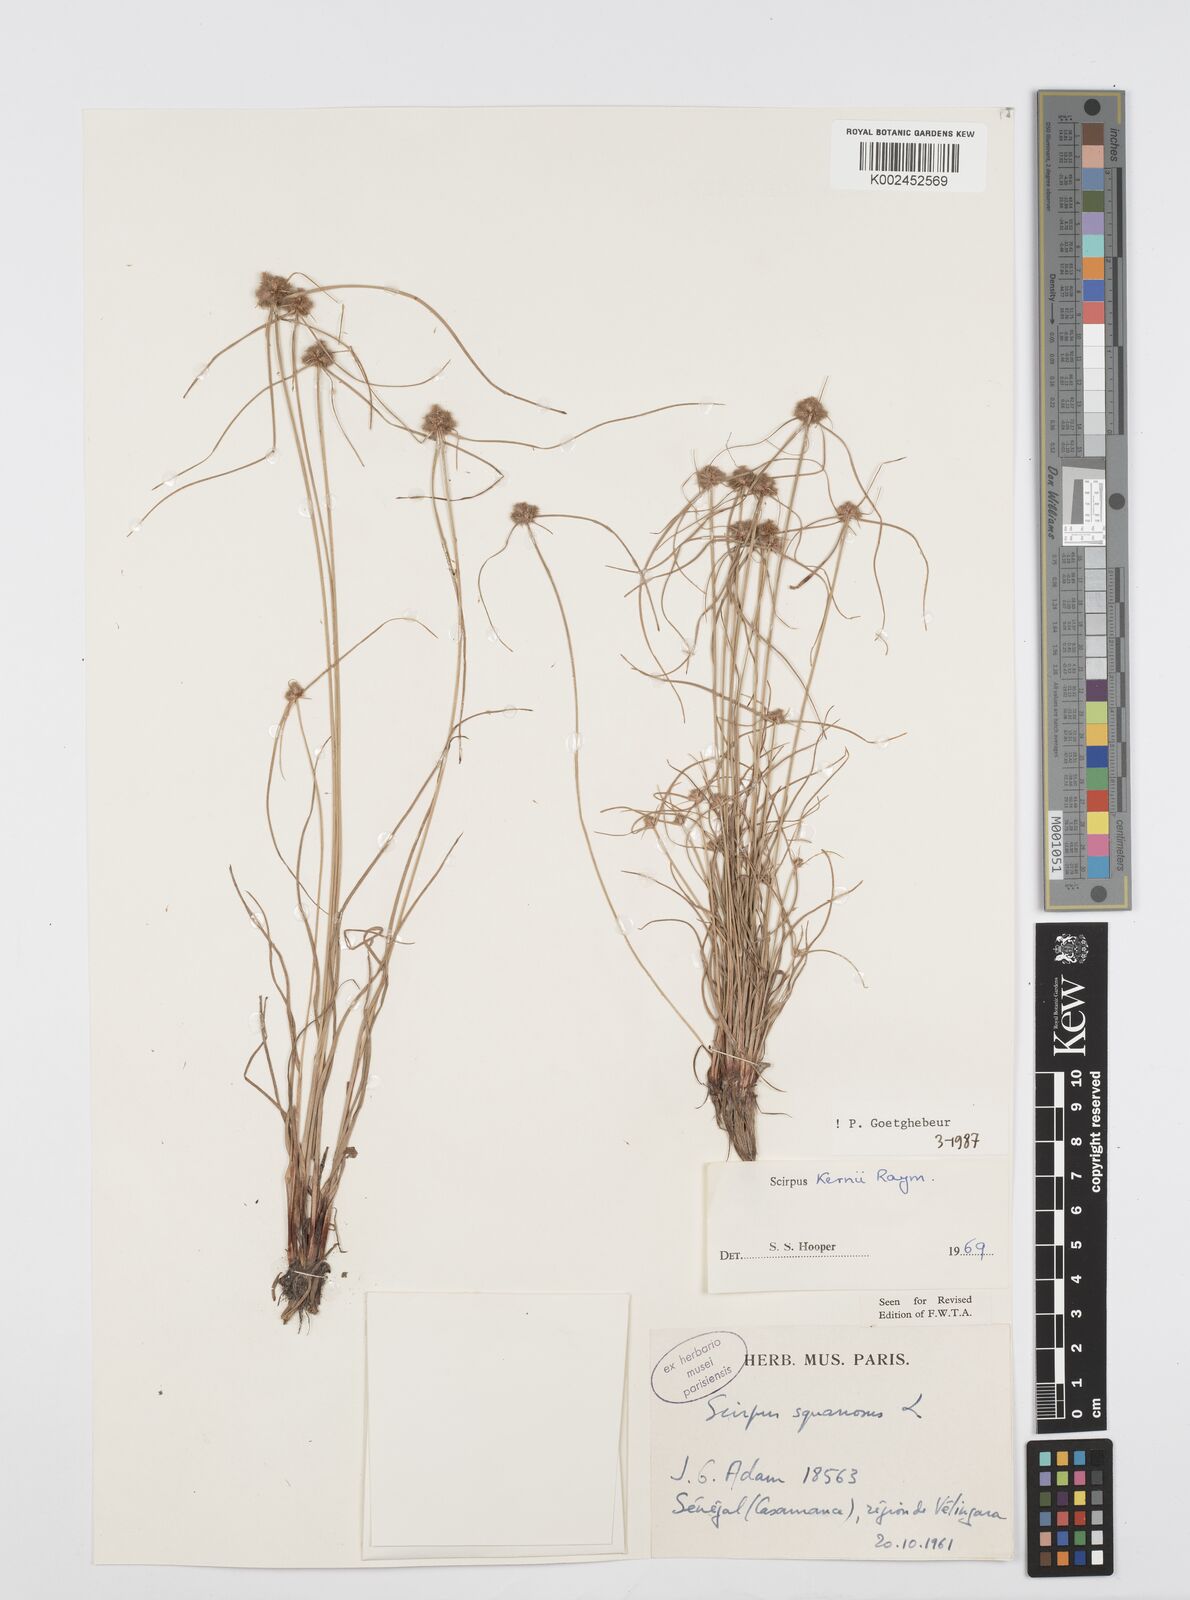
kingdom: Plantae
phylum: Tracheophyta
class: Liliopsida
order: Poales
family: Cyperaceae
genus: Cyperus
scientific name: Cyperus kernii
